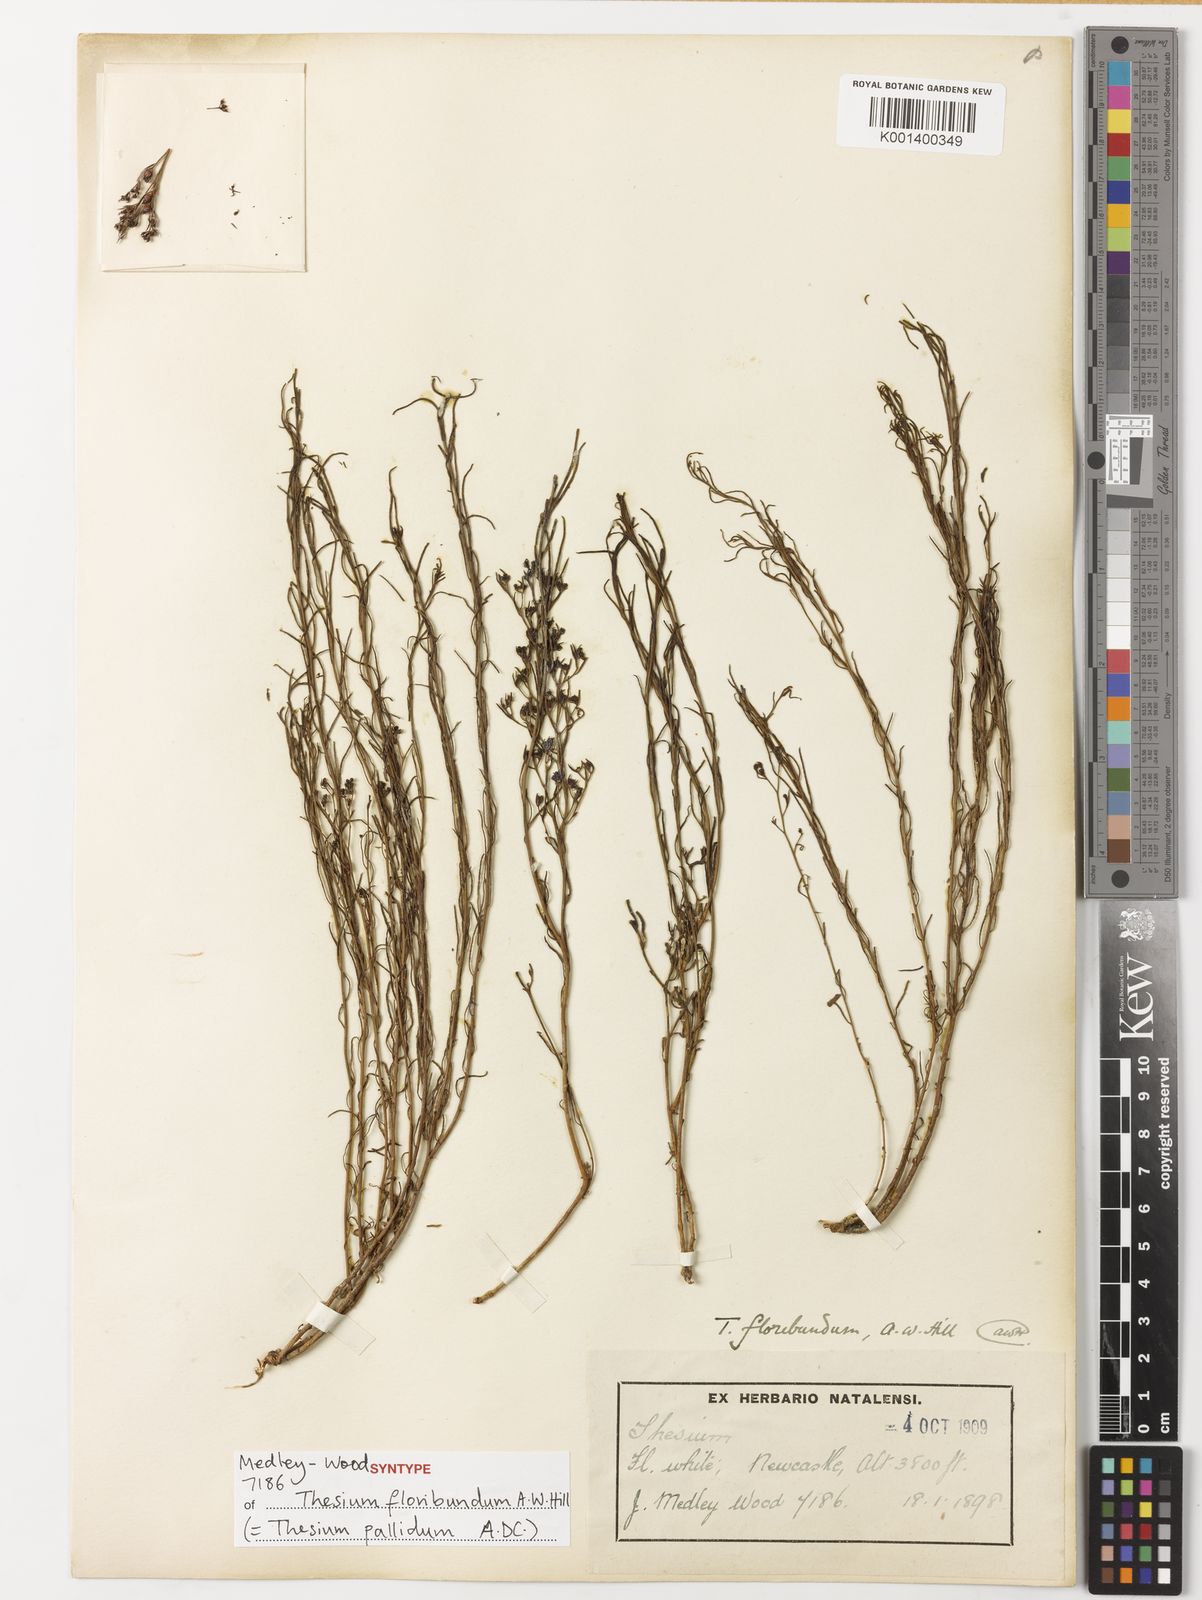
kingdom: Plantae
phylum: Tracheophyta
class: Magnoliopsida
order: Santalales
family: Thesiaceae
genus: Thesium
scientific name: Thesium pallidum
